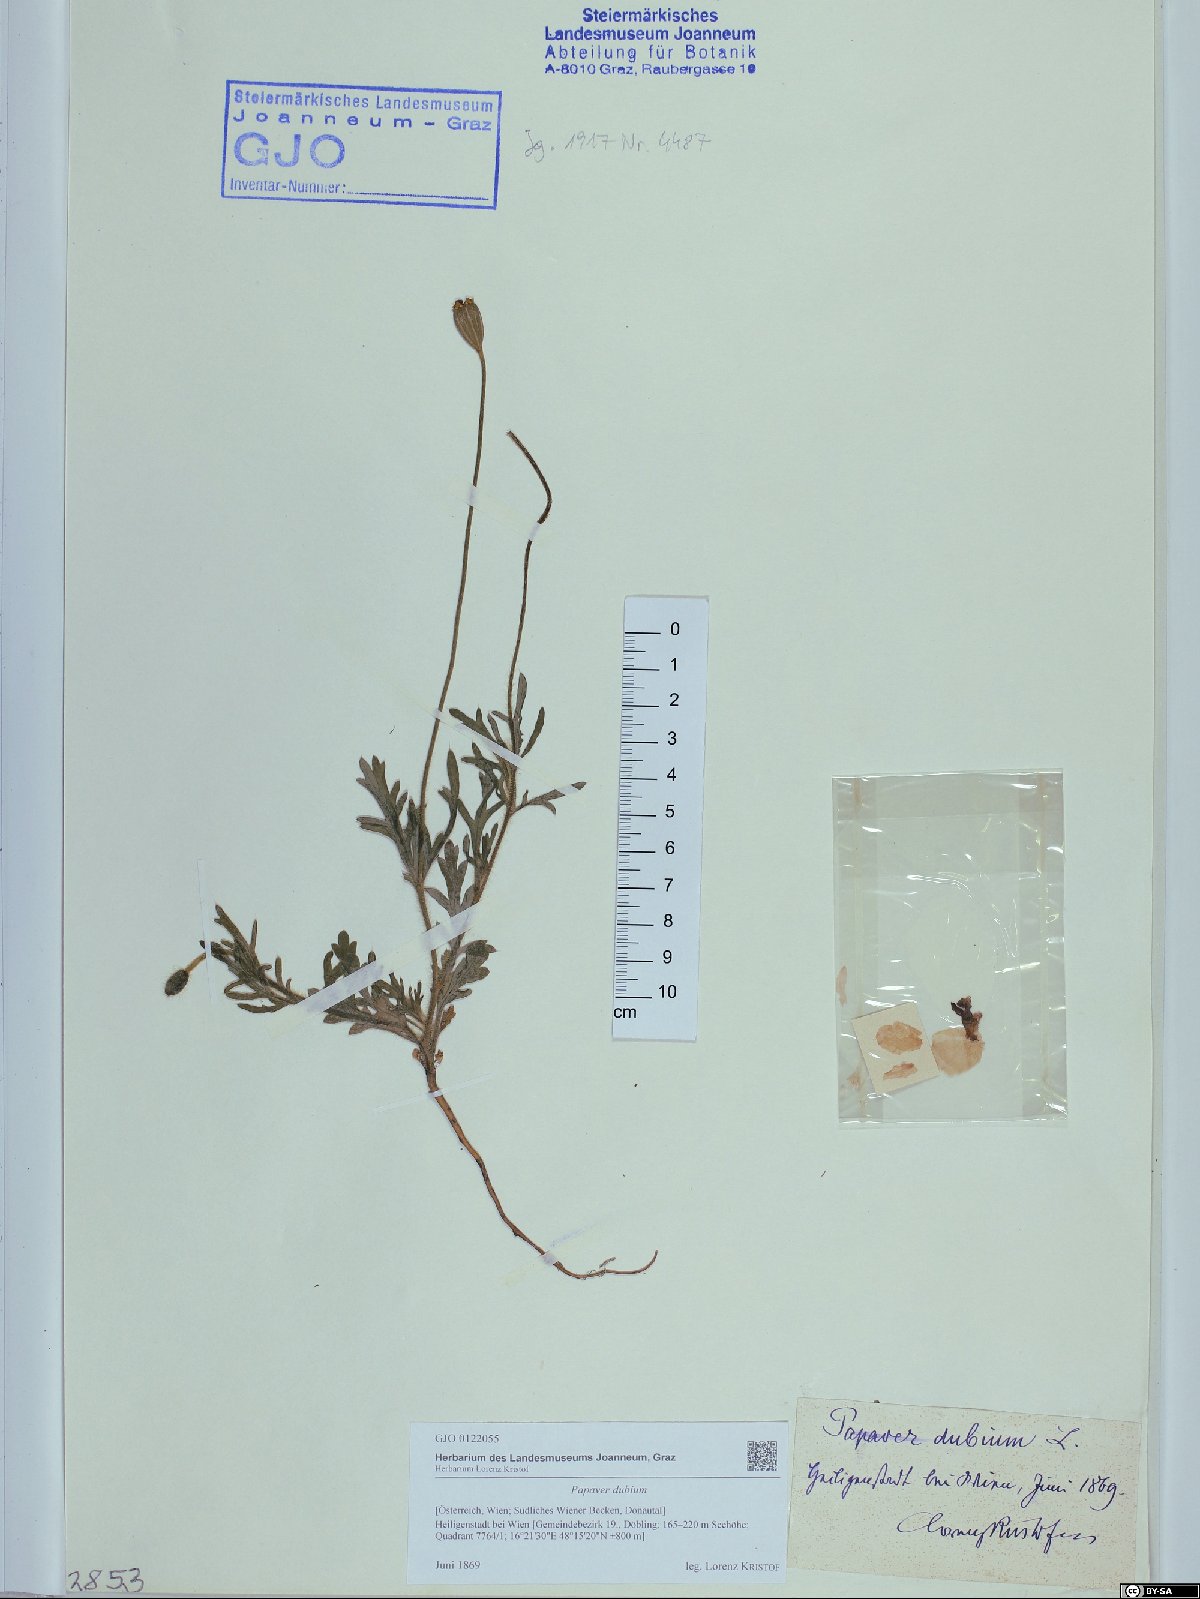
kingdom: Plantae
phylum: Tracheophyta
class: Magnoliopsida
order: Ranunculales
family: Papaveraceae
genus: Papaver
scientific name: Papaver dubium
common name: Long-headed poppy
